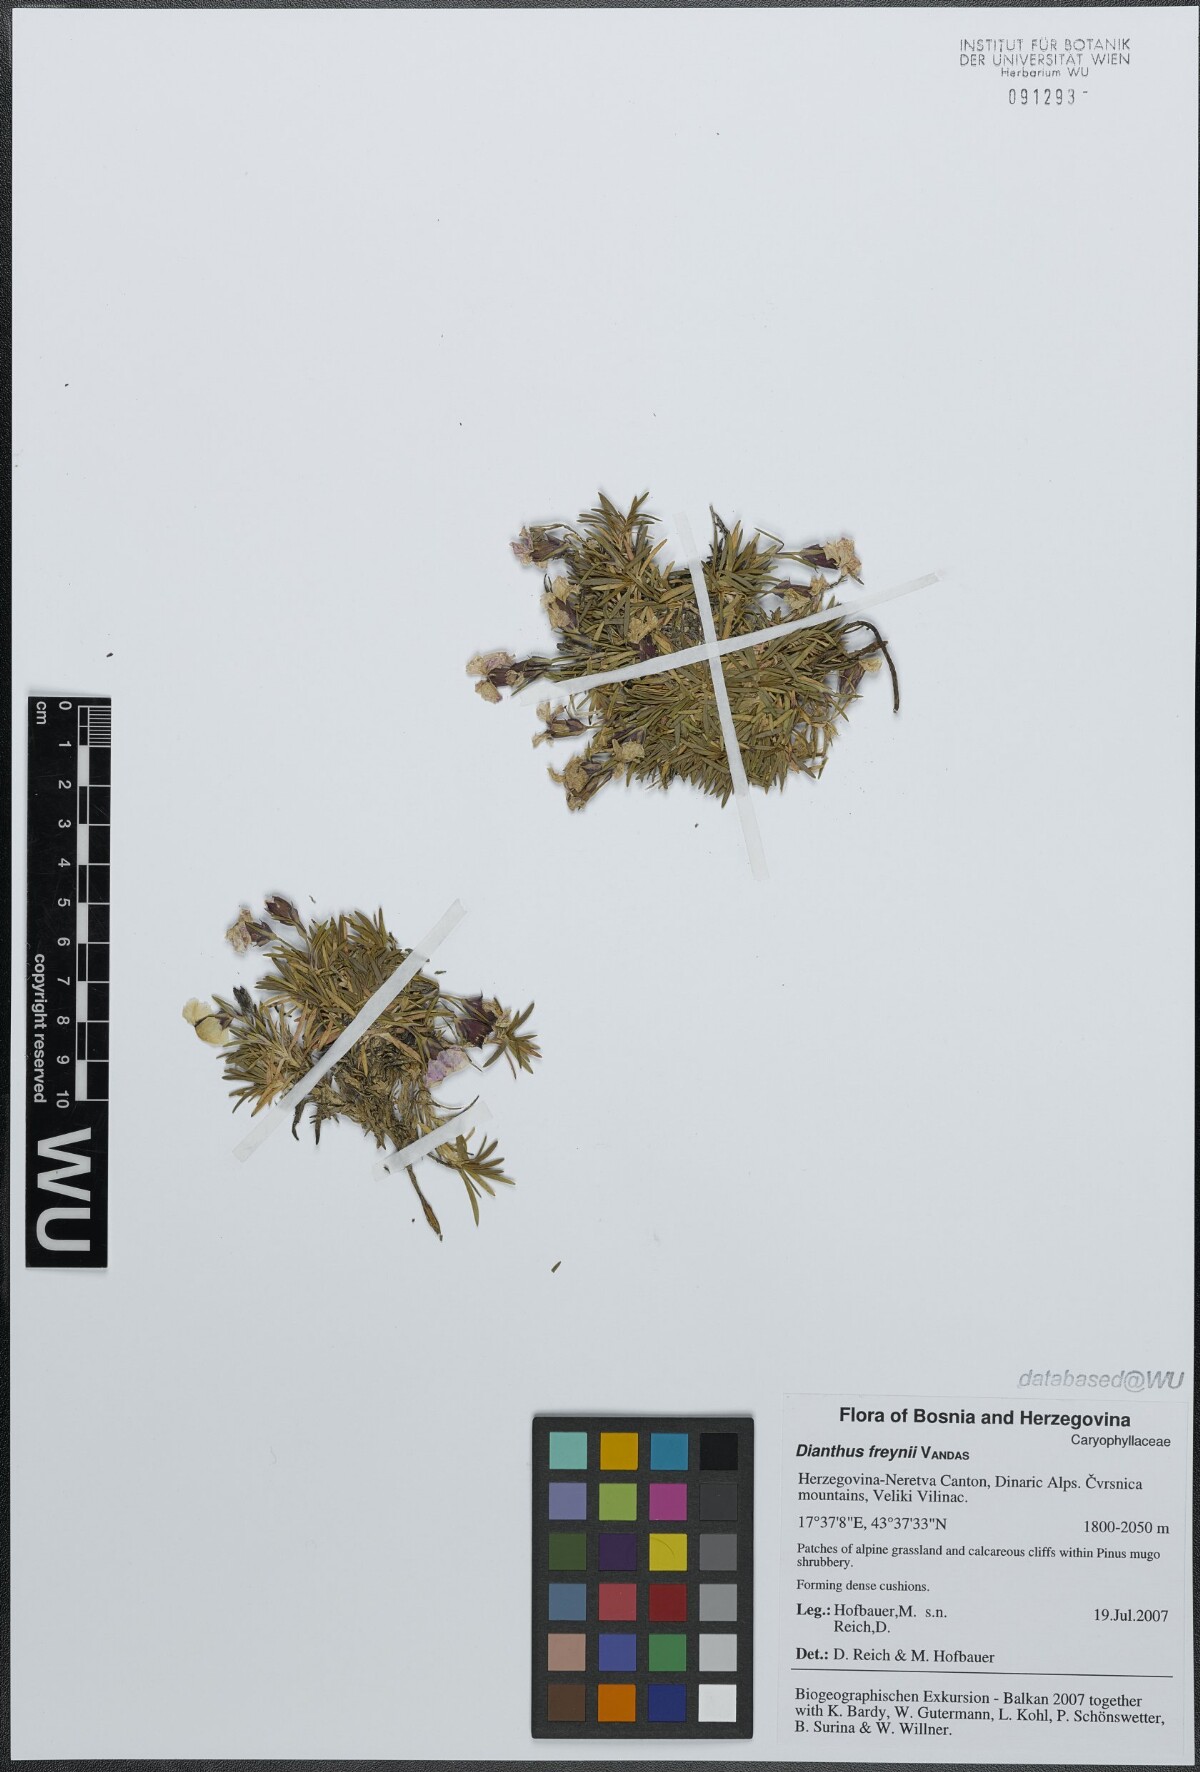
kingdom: Plantae
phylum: Tracheophyta
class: Magnoliopsida
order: Caryophyllales
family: Caryophyllaceae
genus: Dianthus
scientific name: Dianthus freynii
